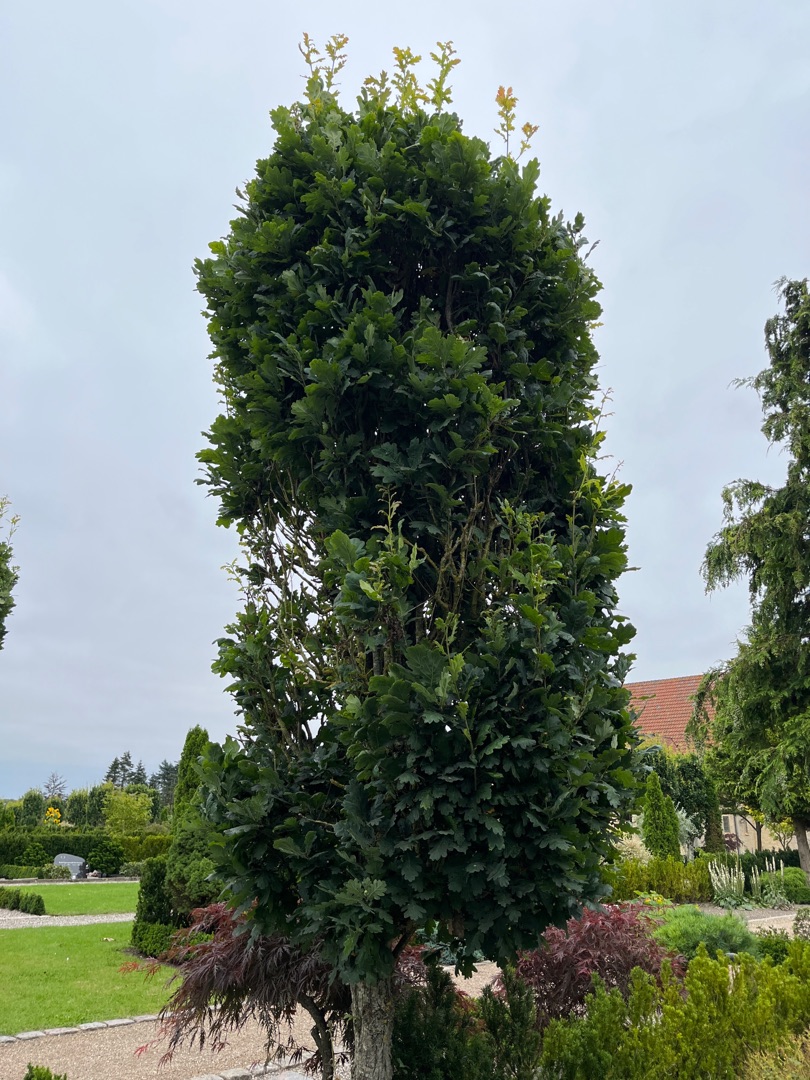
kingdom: Plantae
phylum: Tracheophyta
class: Magnoliopsida
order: Fagales
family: Fagaceae
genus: Quercus
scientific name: Quercus robur
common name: Stilk-eg/almindelig eg
